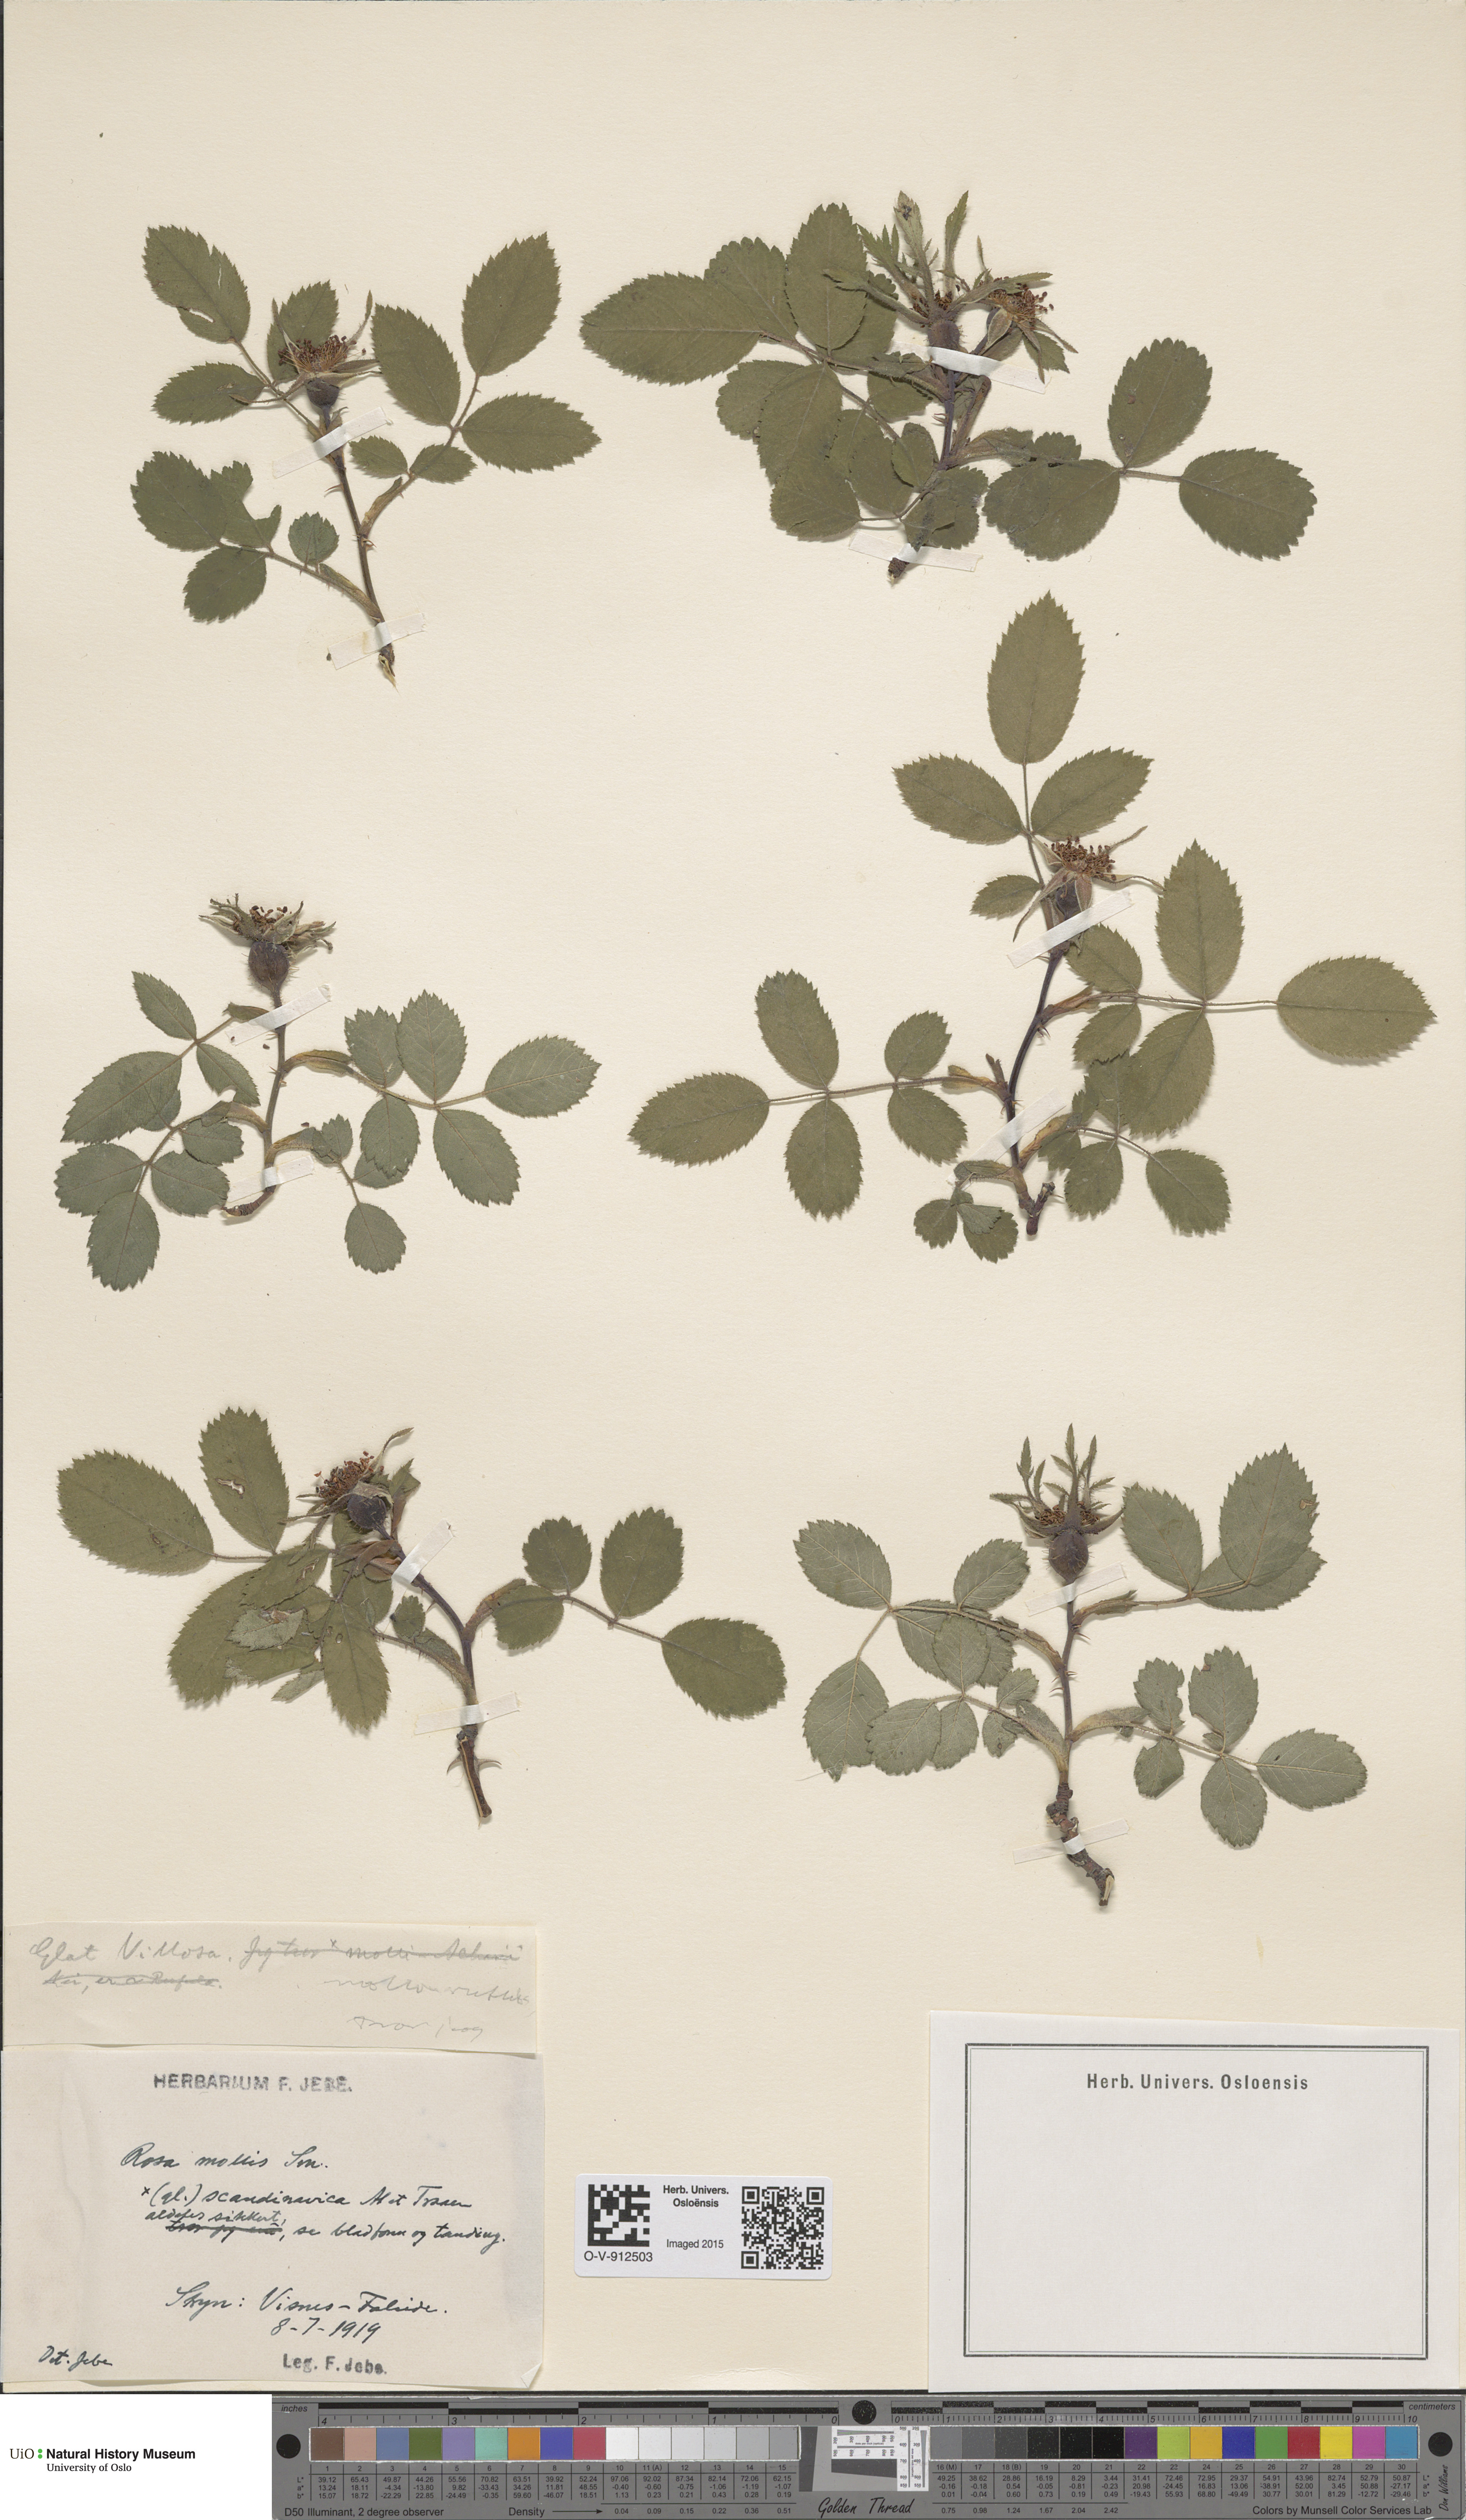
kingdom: Plantae
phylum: Tracheophyta
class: Magnoliopsida
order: Rosales
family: Rosaceae
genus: Rosa
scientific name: Rosa mollis
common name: Rose
